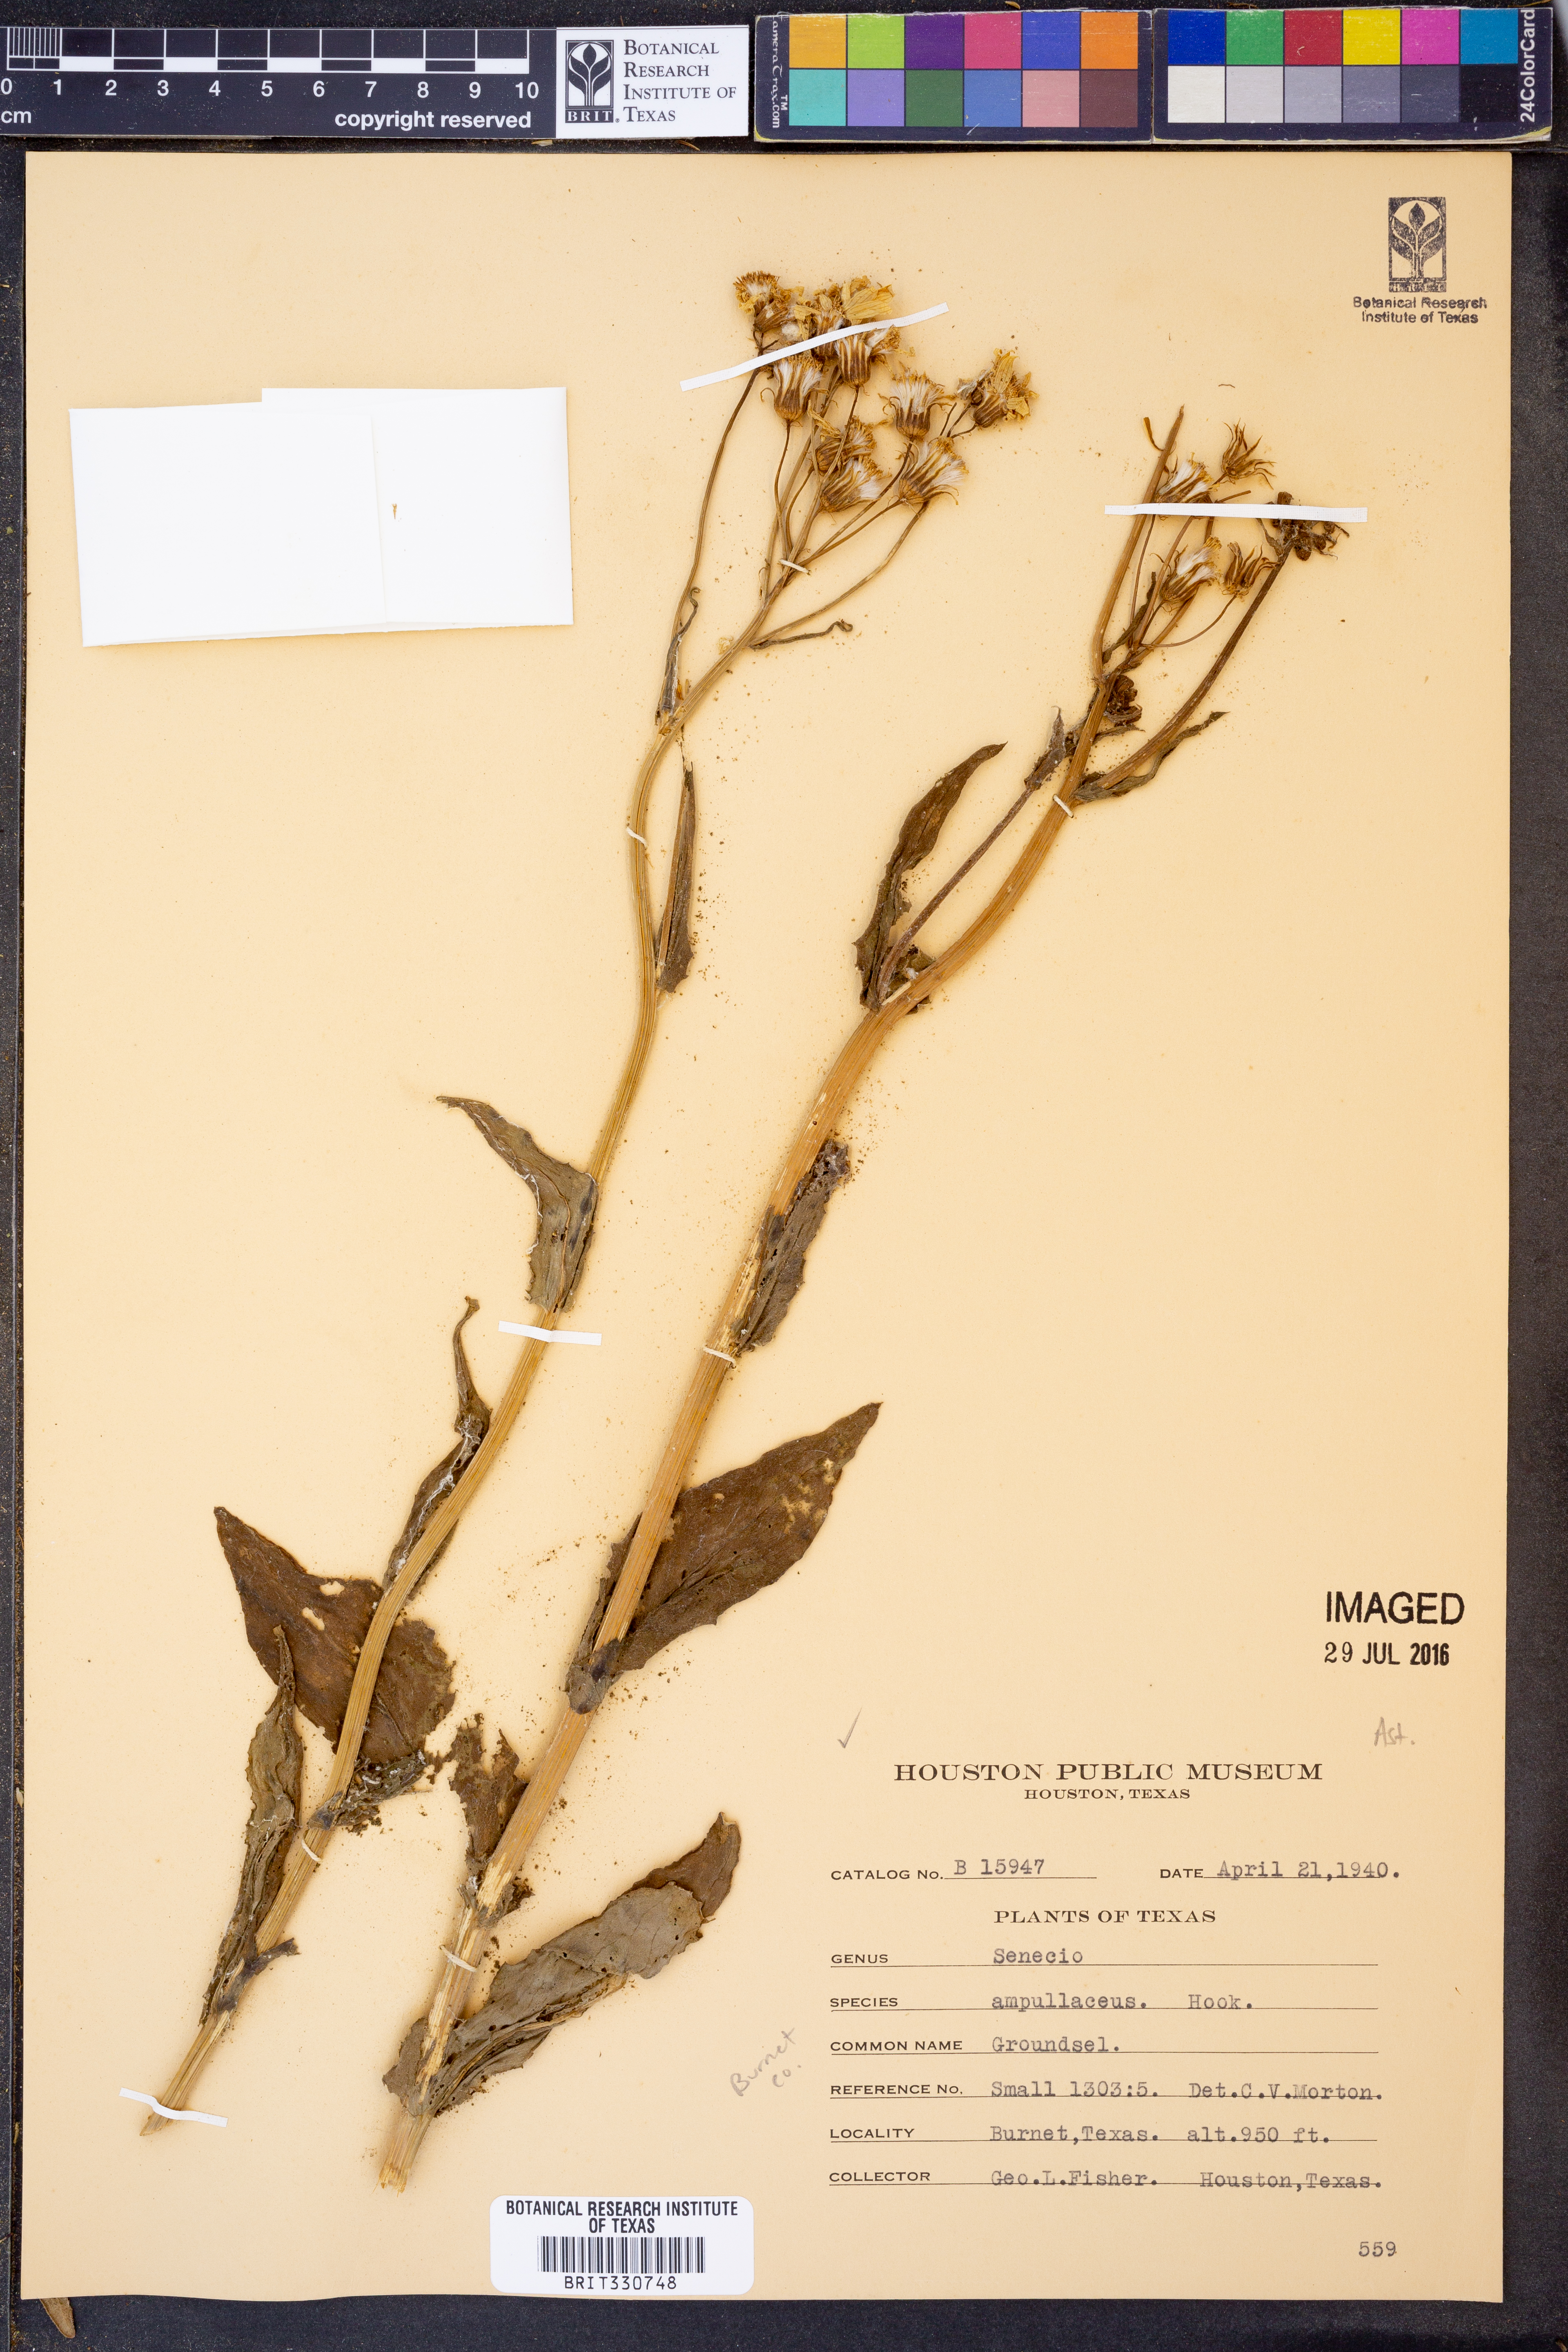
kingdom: Plantae
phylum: Tracheophyta
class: Magnoliopsida
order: Asterales
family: Asteraceae
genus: Senecio
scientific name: Senecio ampullaceus
